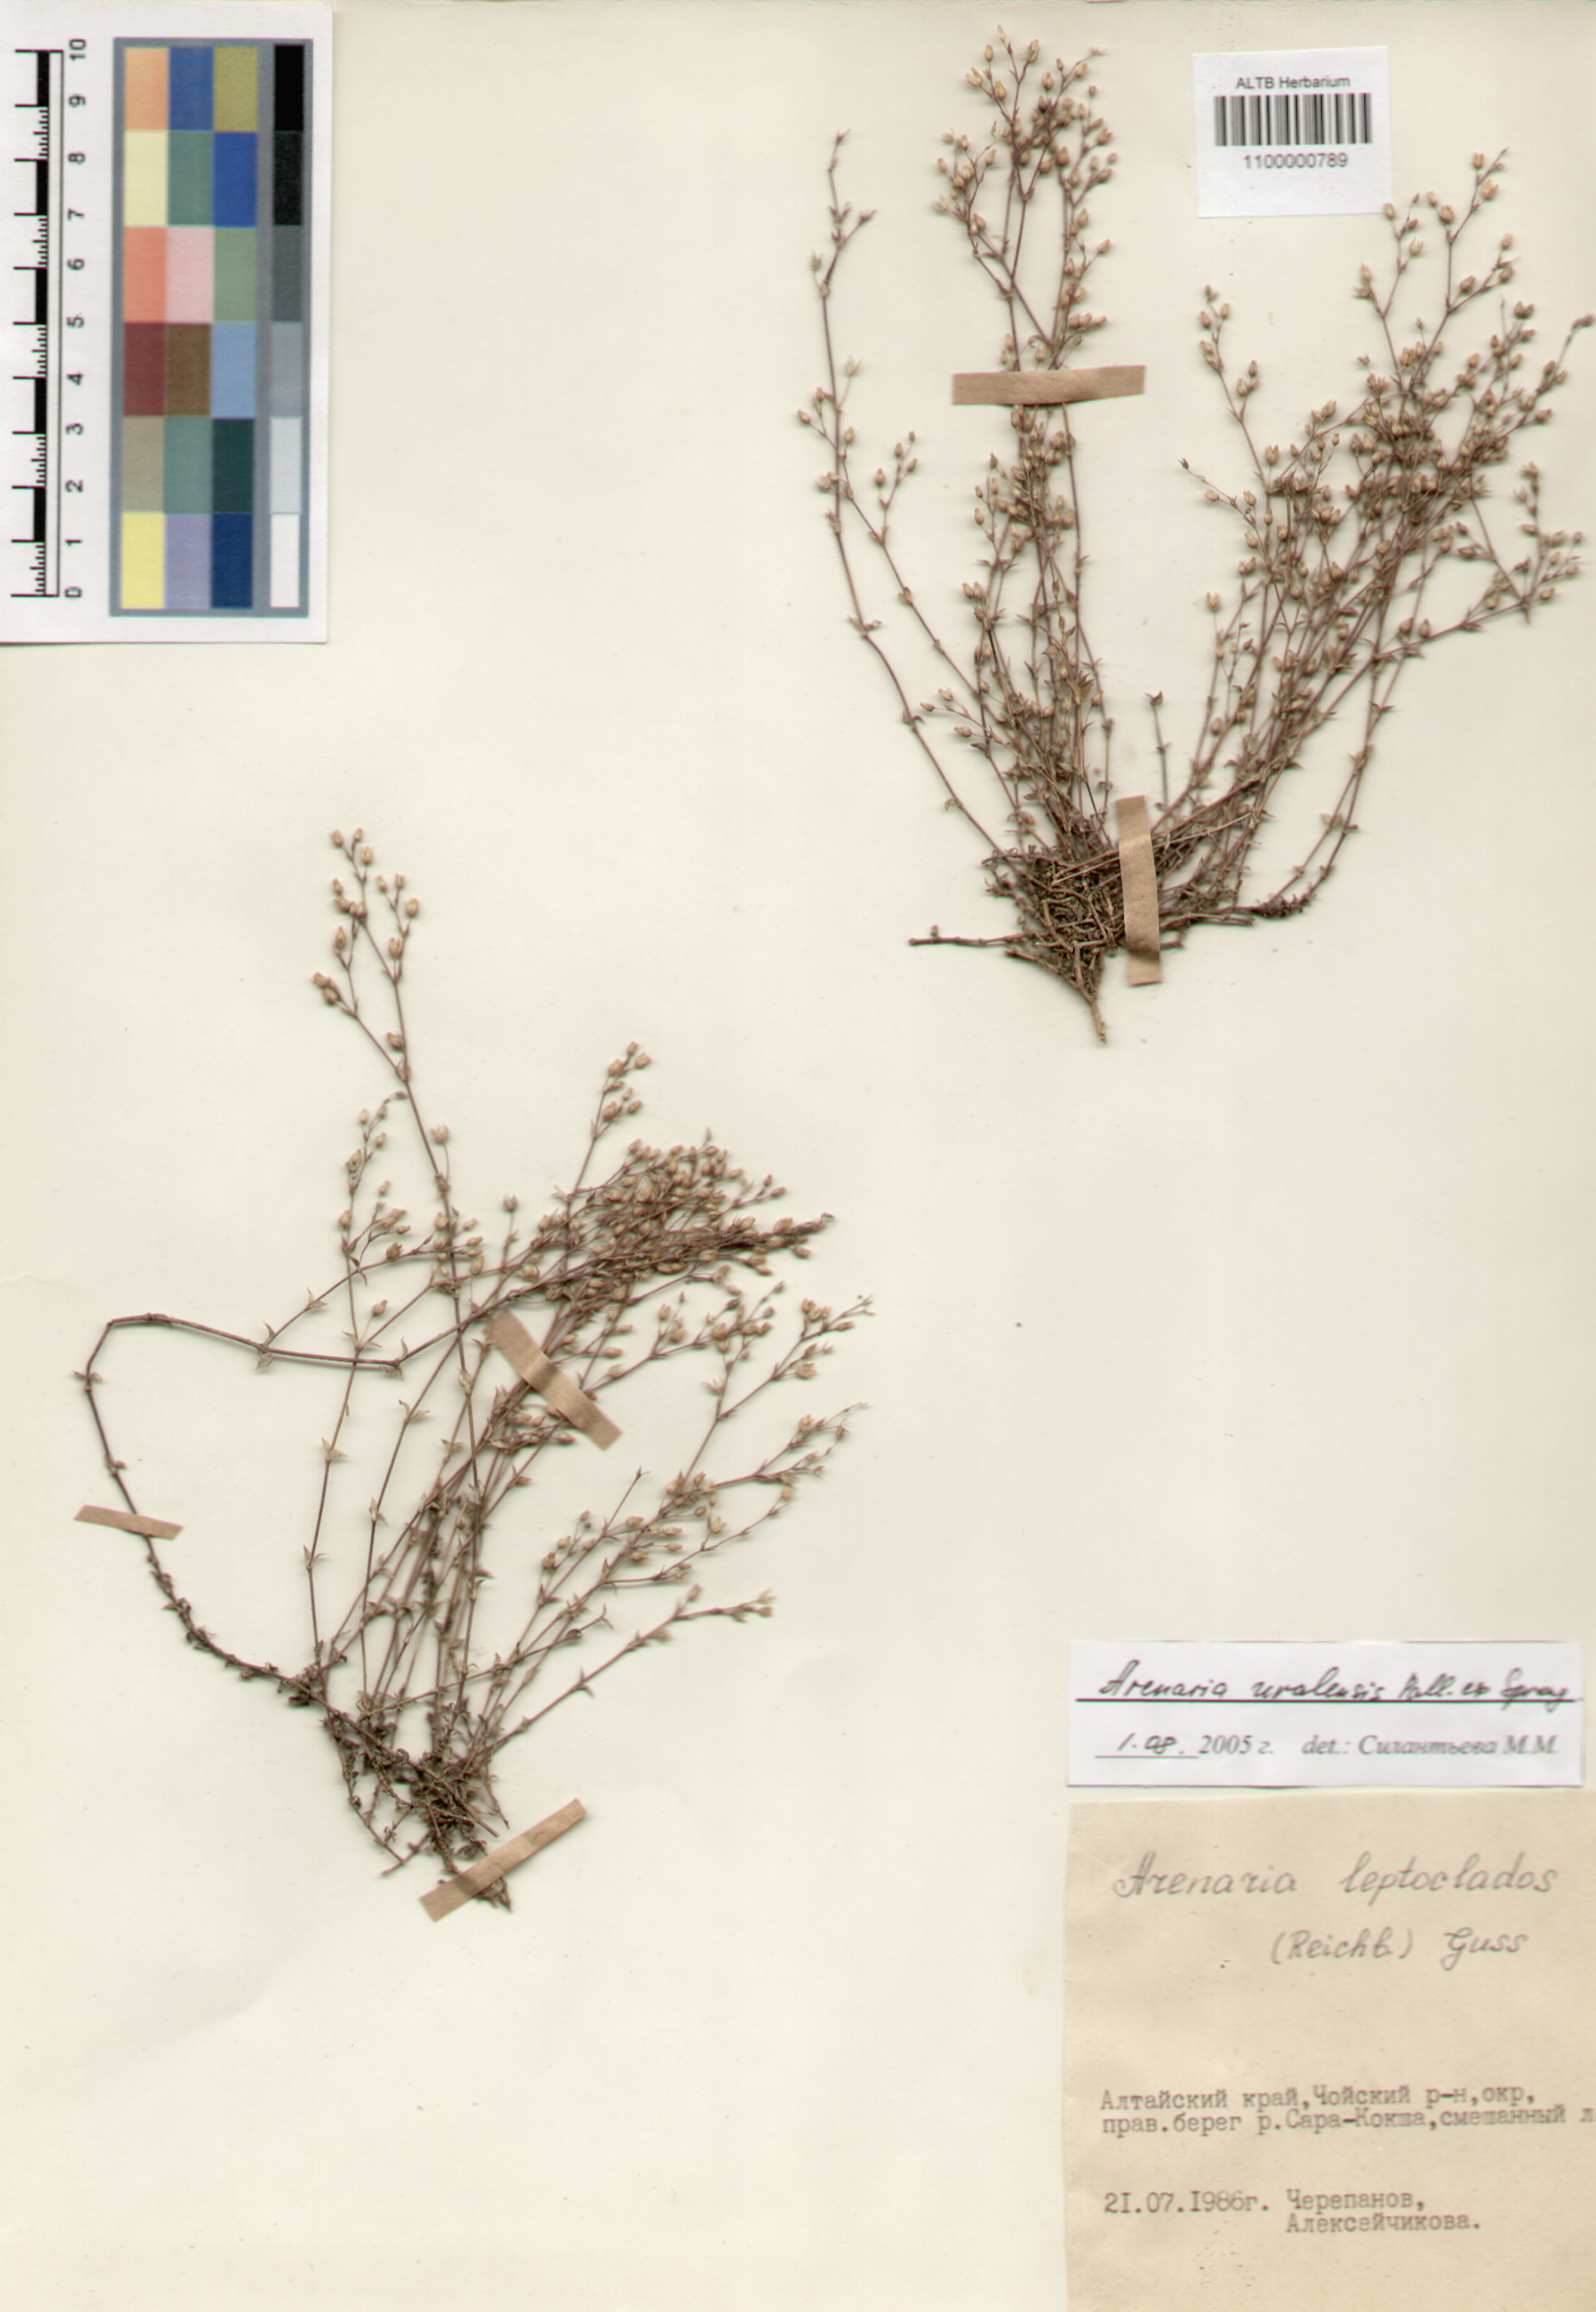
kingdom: Plantae
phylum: Tracheophyta
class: Magnoliopsida
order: Caryophyllales
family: Caryophyllaceae
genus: Arenaria
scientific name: Arenaria serpyllifolia
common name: Thyme-leaved sandwort
